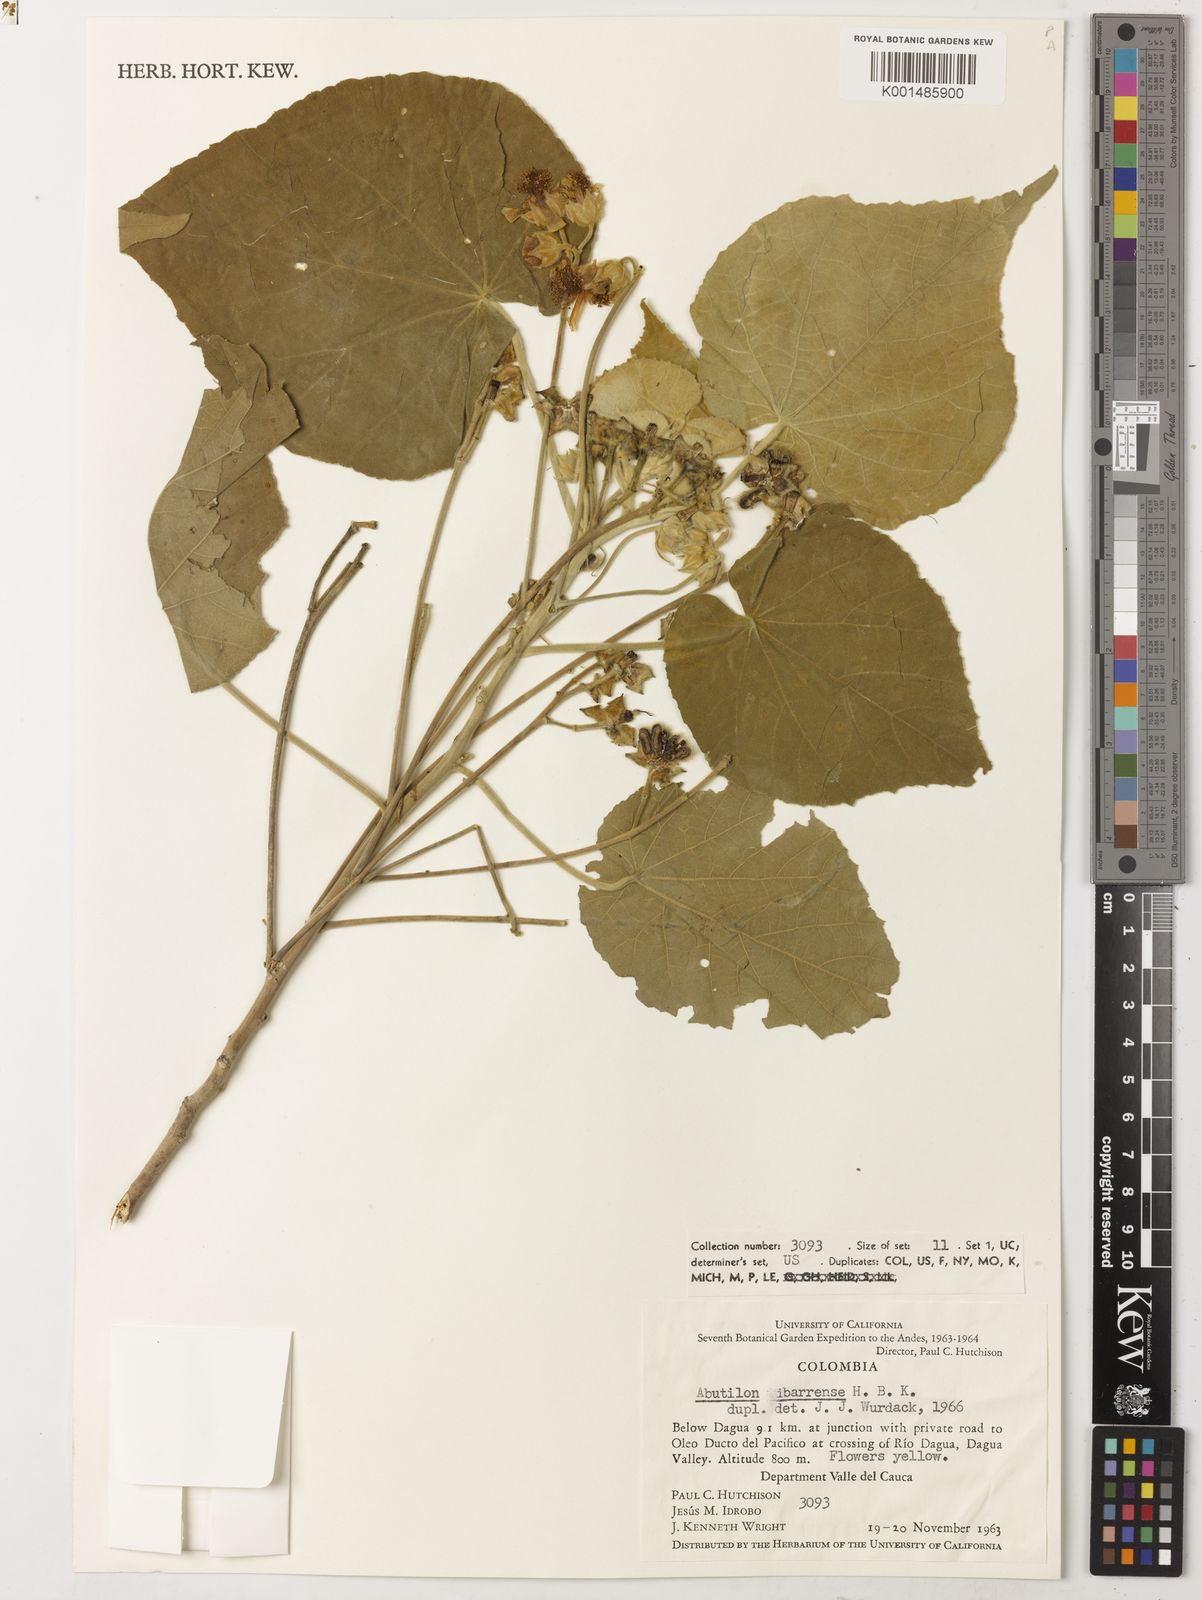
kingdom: Plantae
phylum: Tracheophyta
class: Magnoliopsida
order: Malvales
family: Malvaceae
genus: Abutilon
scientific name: Abutilon ibarrense
